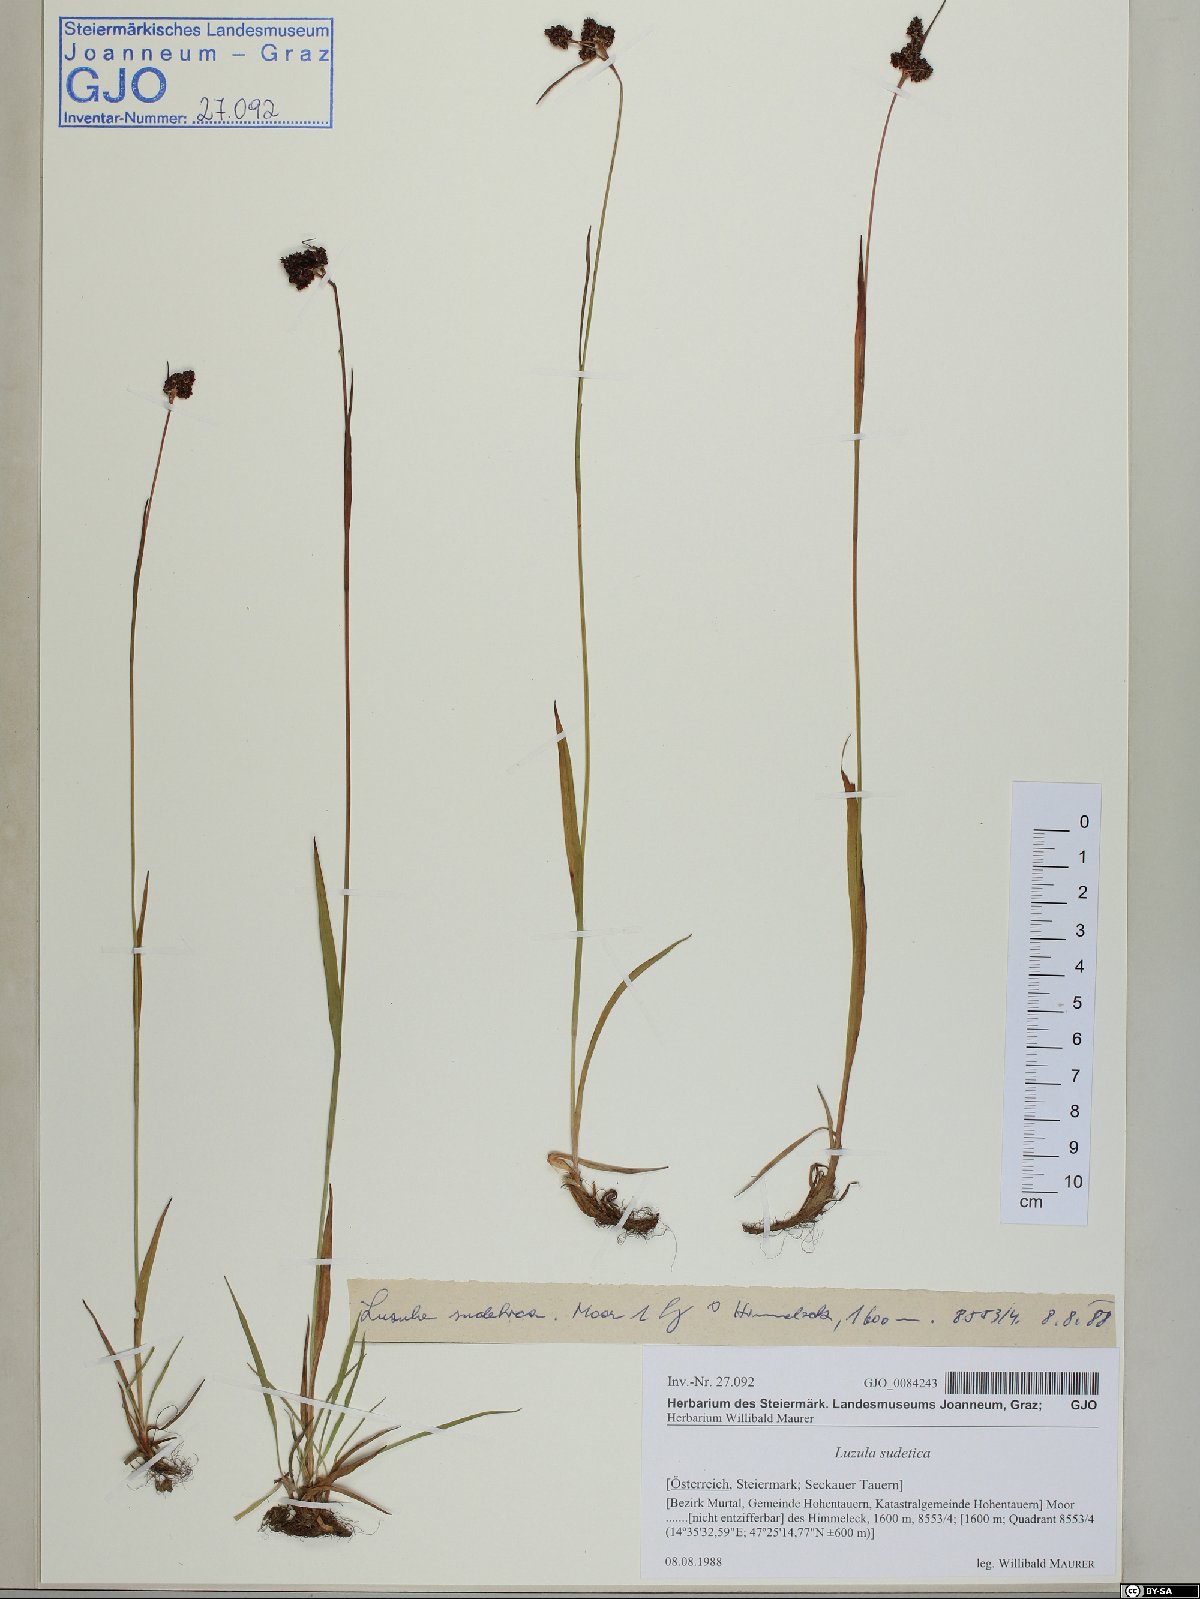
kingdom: Plantae
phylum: Tracheophyta
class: Liliopsida
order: Poales
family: Juncaceae
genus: Luzula
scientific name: Luzula sudetica
